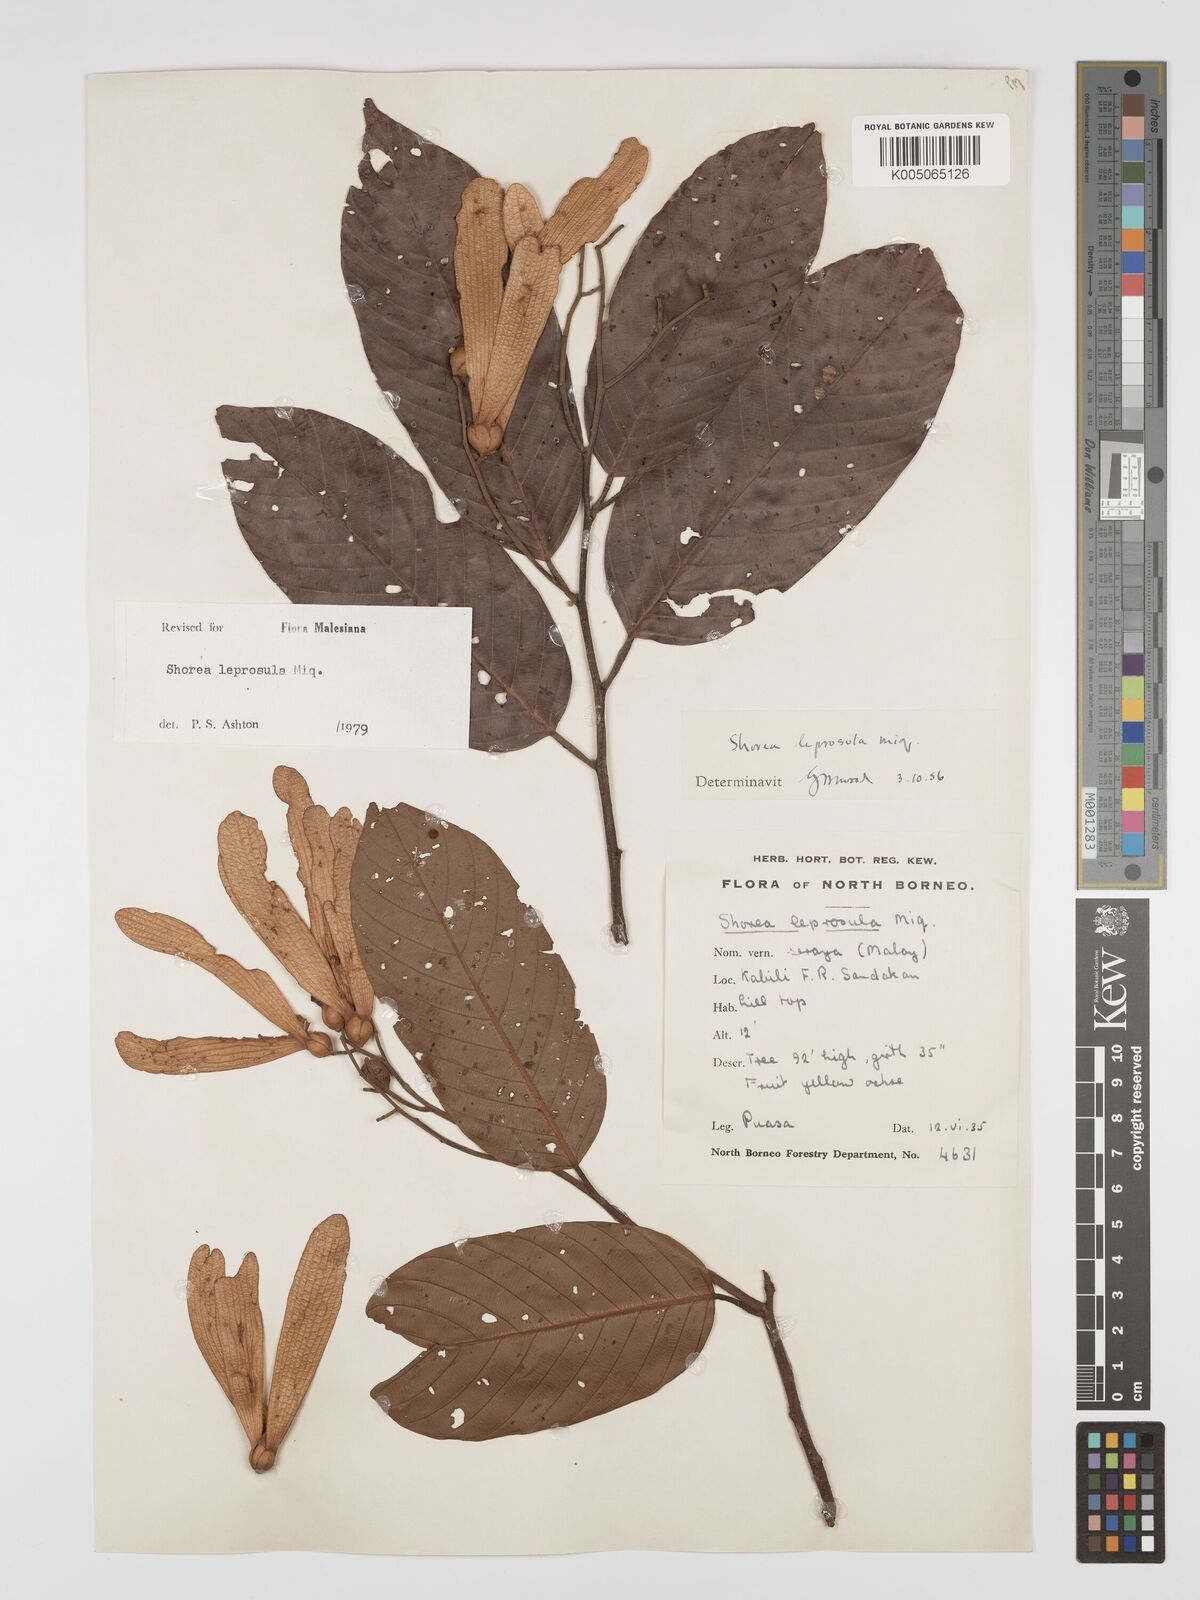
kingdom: Plantae
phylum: Tracheophyta
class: Magnoliopsida
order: Malvales
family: Dipterocarpaceae
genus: Shorea
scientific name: Shorea leprosula
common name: Light red meranti
